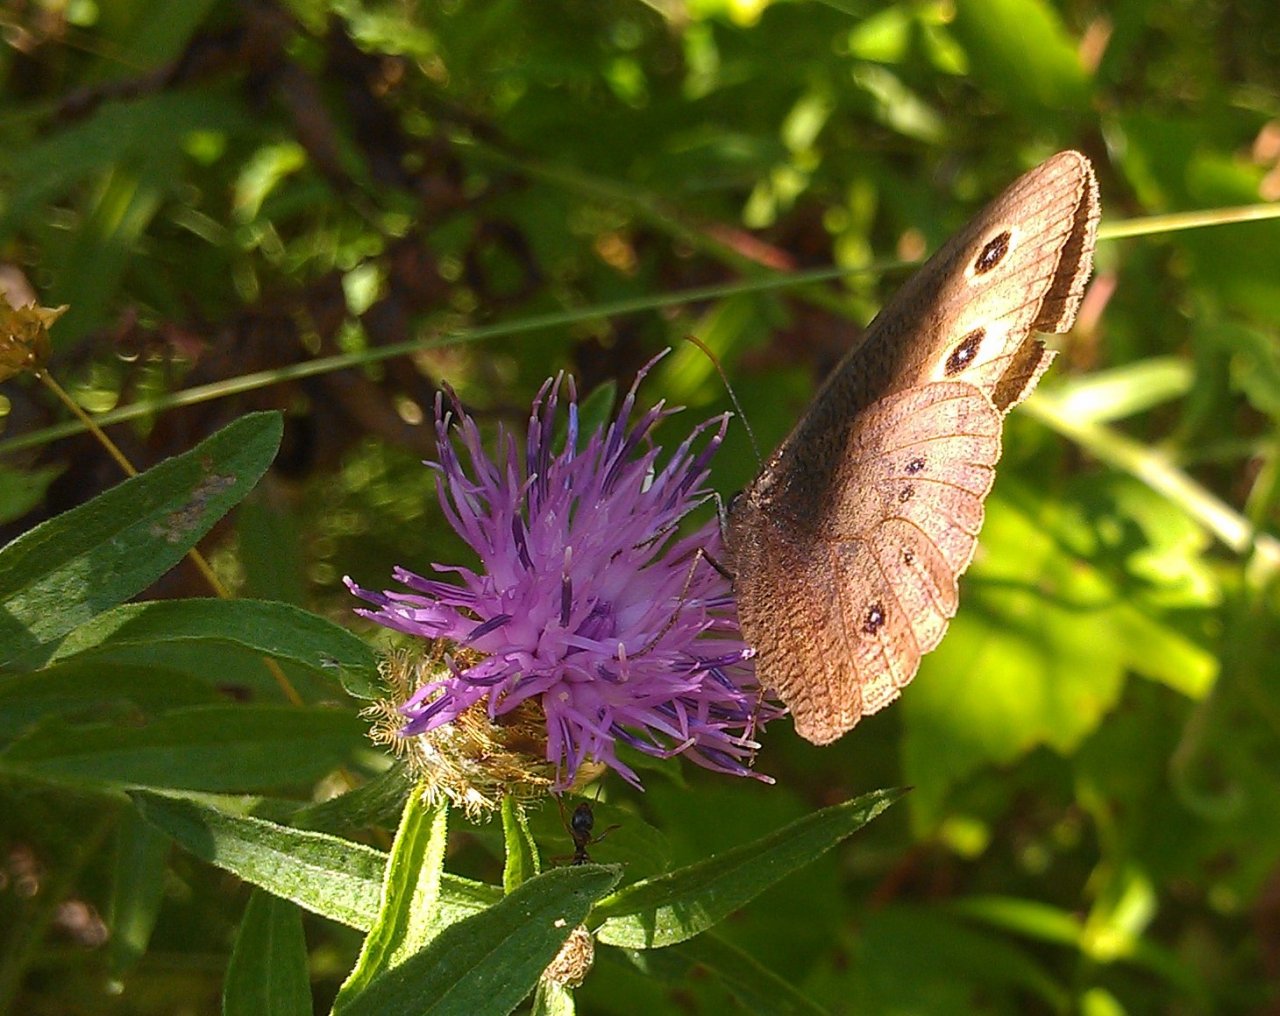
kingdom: Animalia
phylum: Arthropoda
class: Insecta
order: Lepidoptera
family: Nymphalidae
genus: Cercyonis
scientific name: Cercyonis pegala
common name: Common Wood-Nymph
